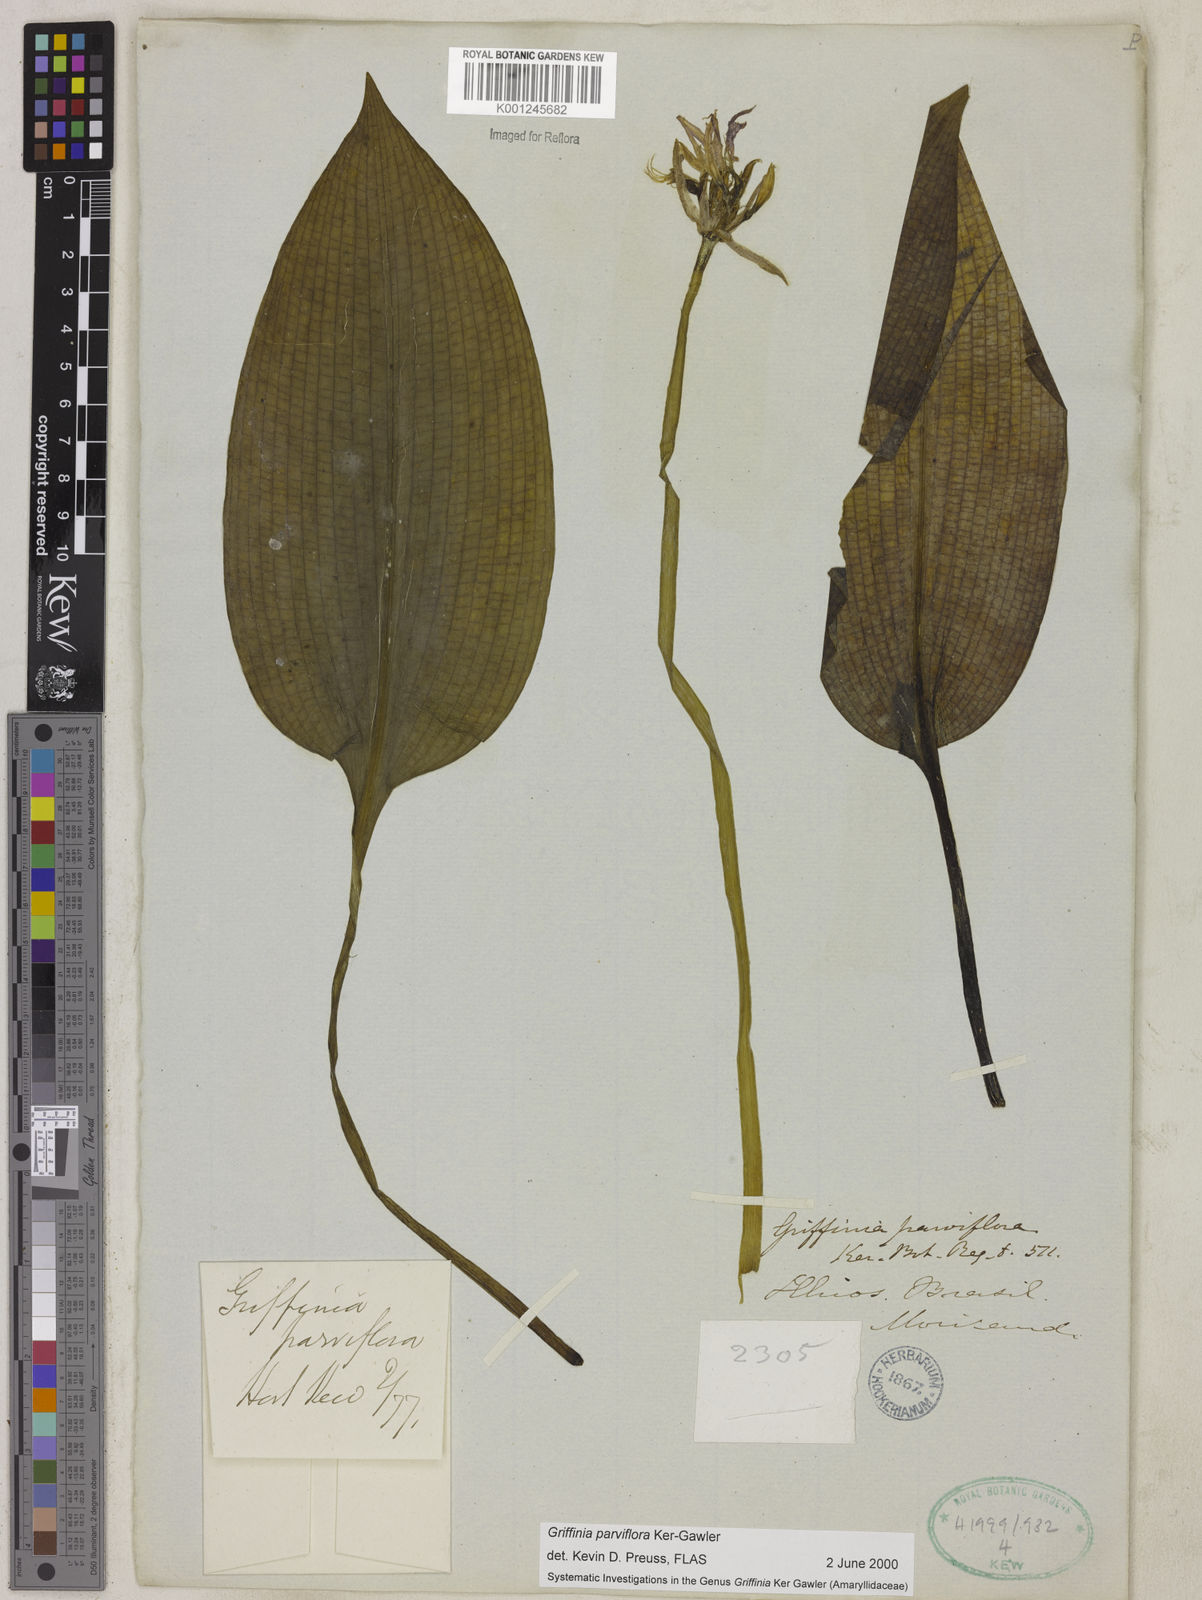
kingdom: Plantae
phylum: Tracheophyta
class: Liliopsida
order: Asparagales
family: Amaryllidaceae
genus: Griffinia
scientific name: Griffinia parviflora
